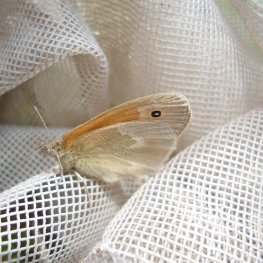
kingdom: Animalia
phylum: Arthropoda
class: Insecta
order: Lepidoptera
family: Nymphalidae
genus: Coenonympha
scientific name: Coenonympha tullia
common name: Large Heath
